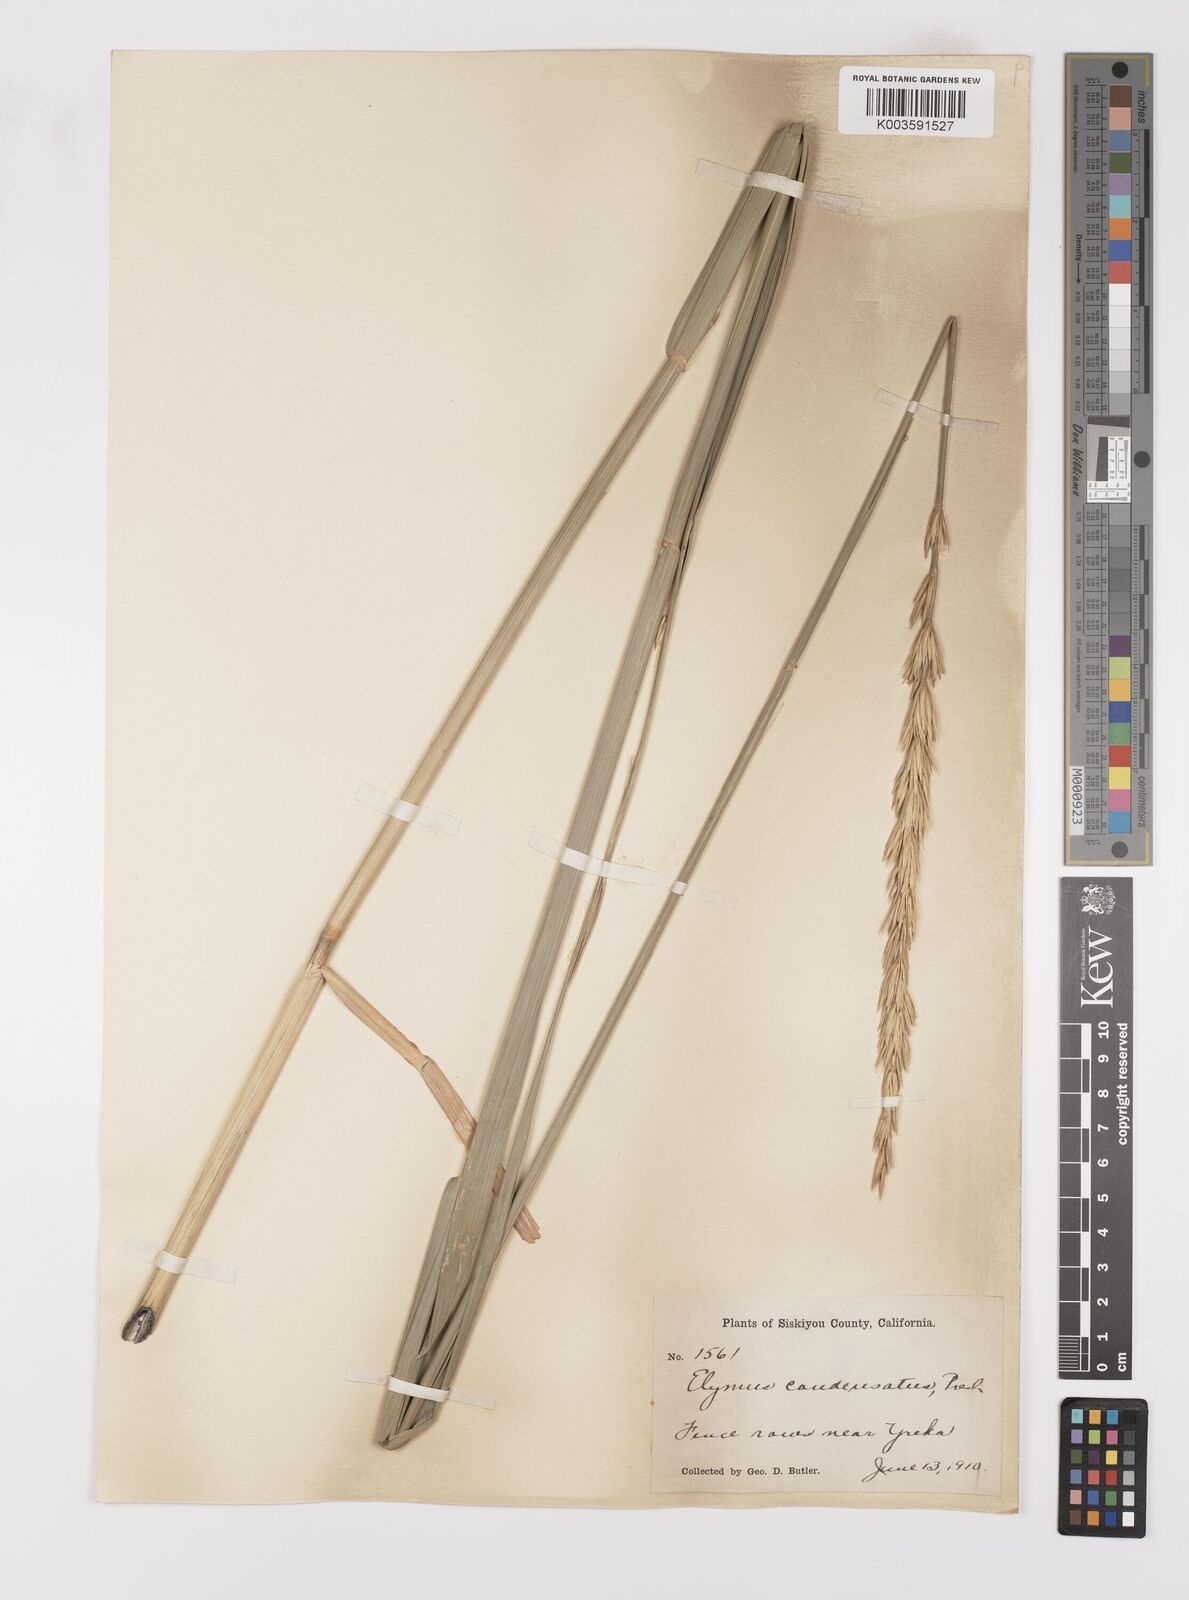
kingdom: Plantae
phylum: Tracheophyta
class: Liliopsida
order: Poales
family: Poaceae
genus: Leymus
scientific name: Leymus condensatus
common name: Giant wild rye
